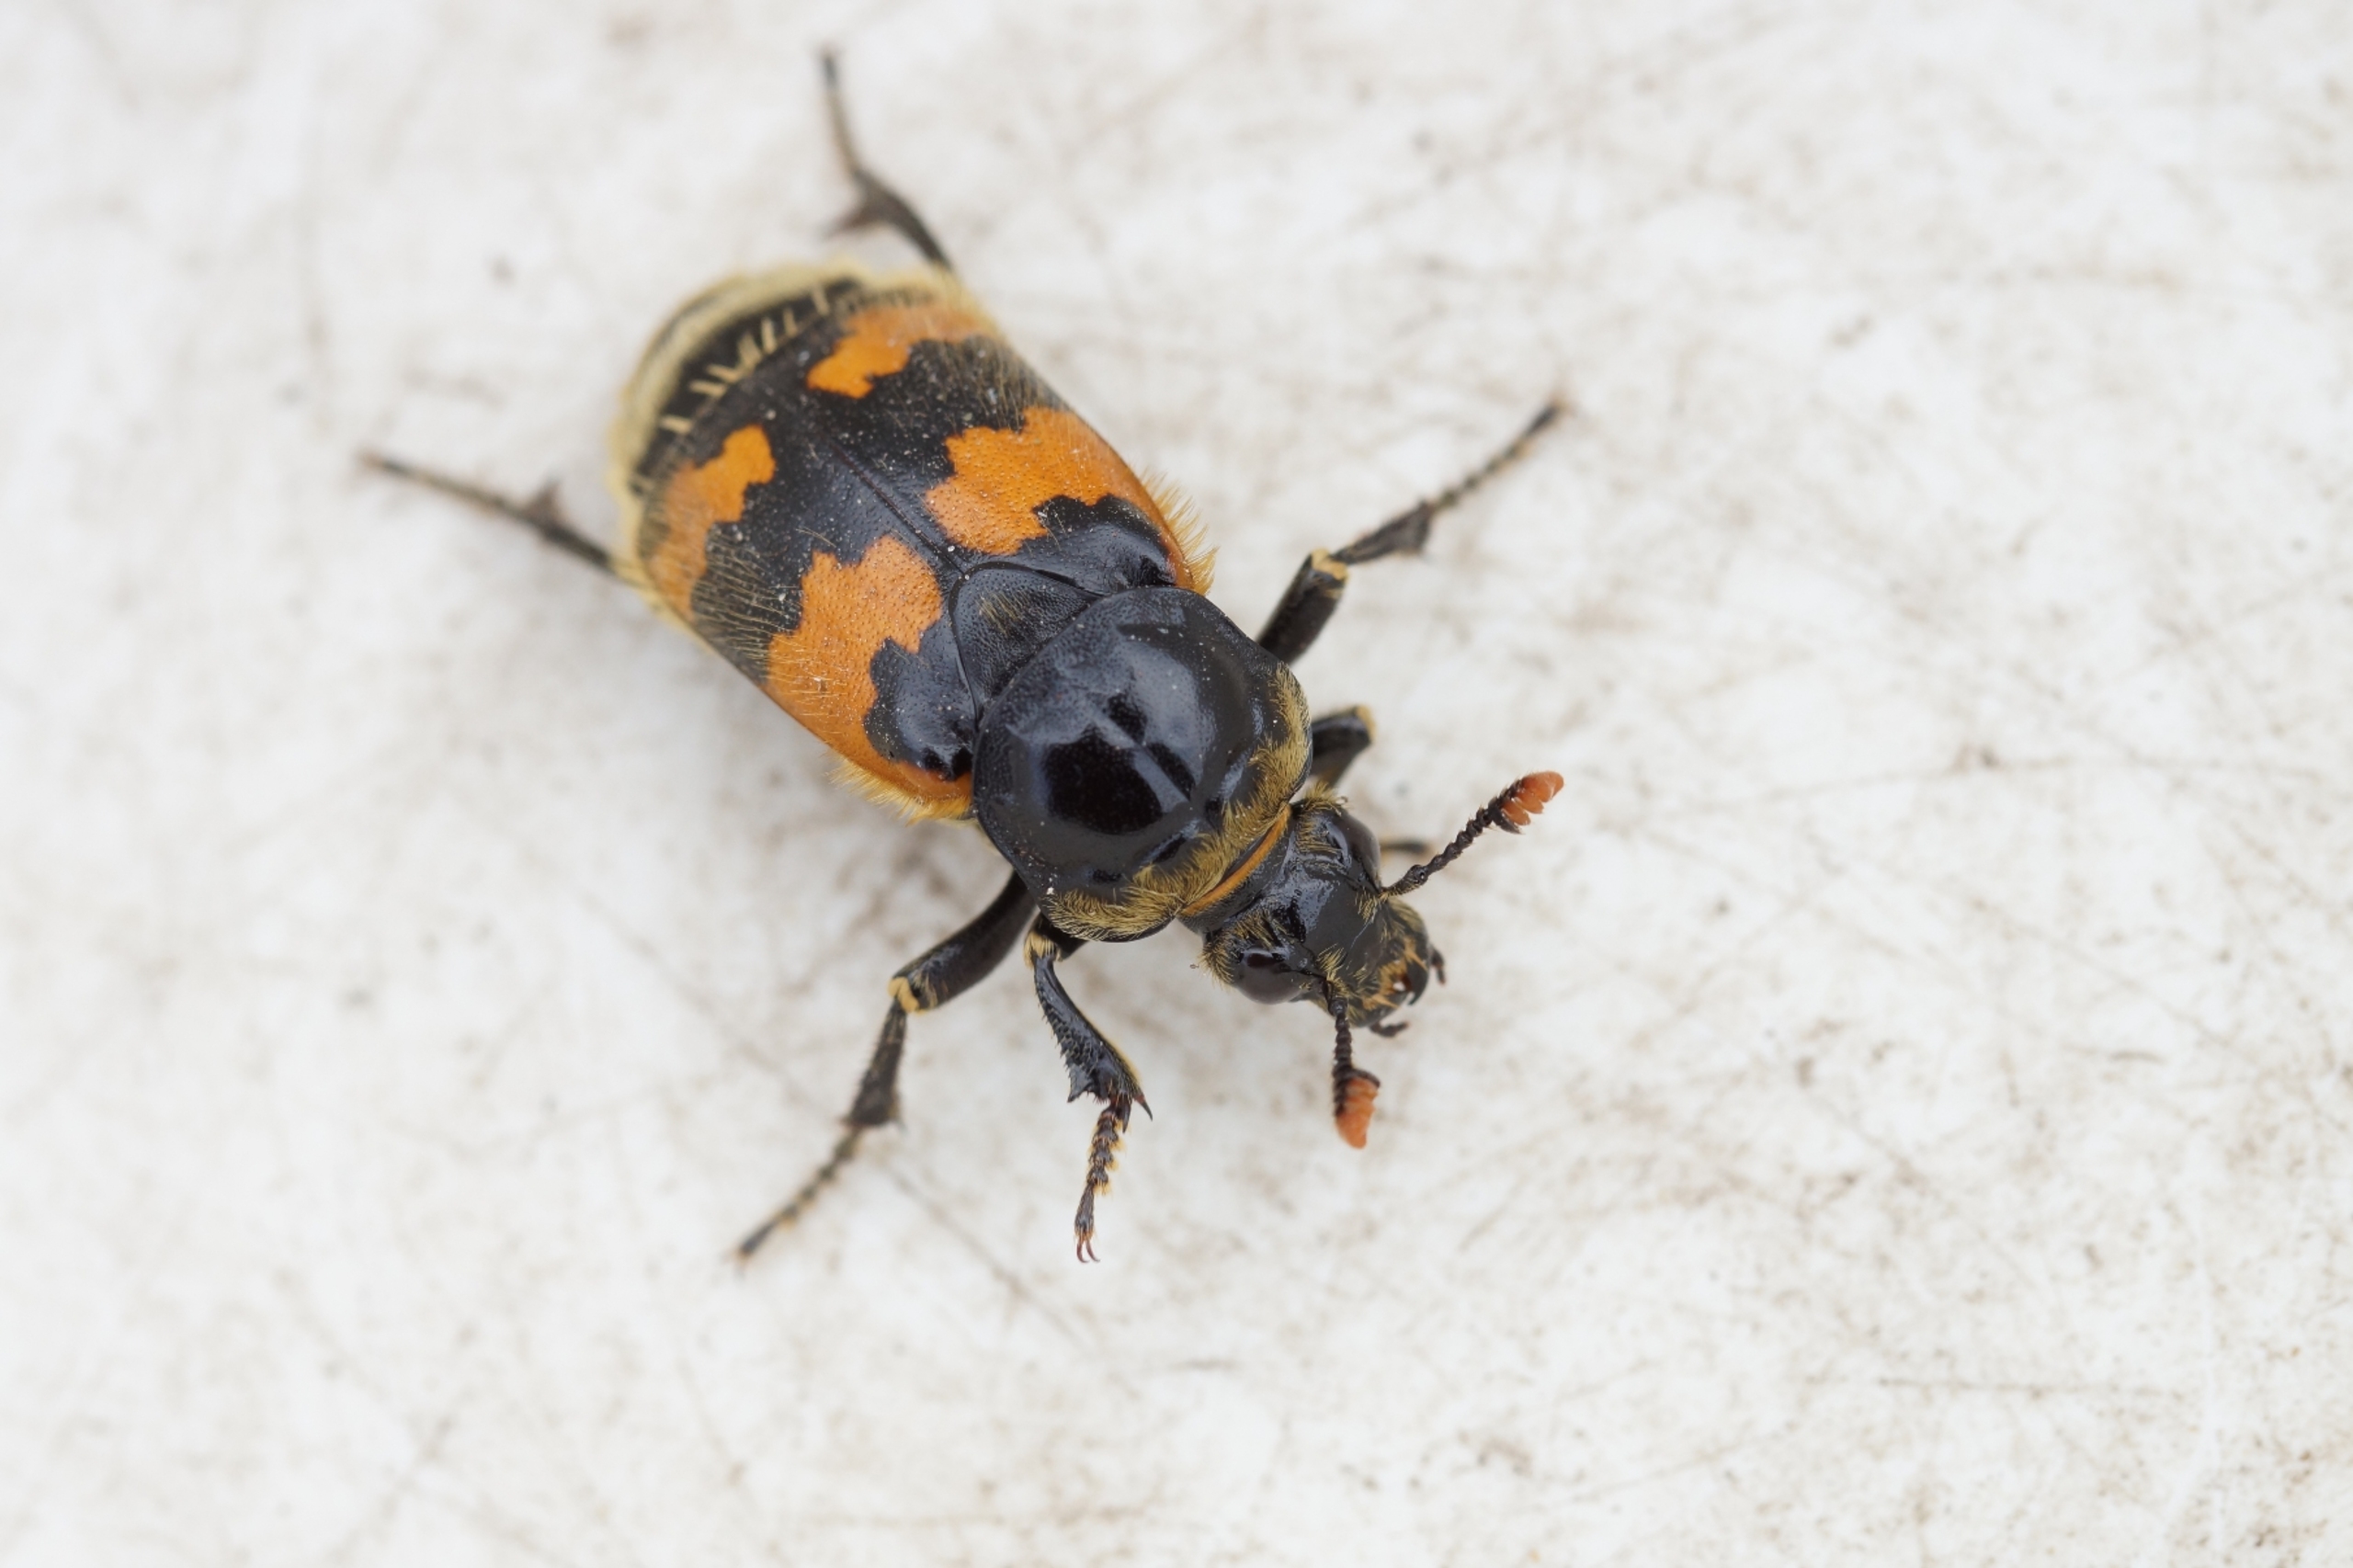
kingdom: Animalia
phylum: Arthropoda
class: Insecta
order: Coleoptera
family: Staphylinidae
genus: Nicrophorus
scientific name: Nicrophorus vespillo
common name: Krumbenet ådselgraver
